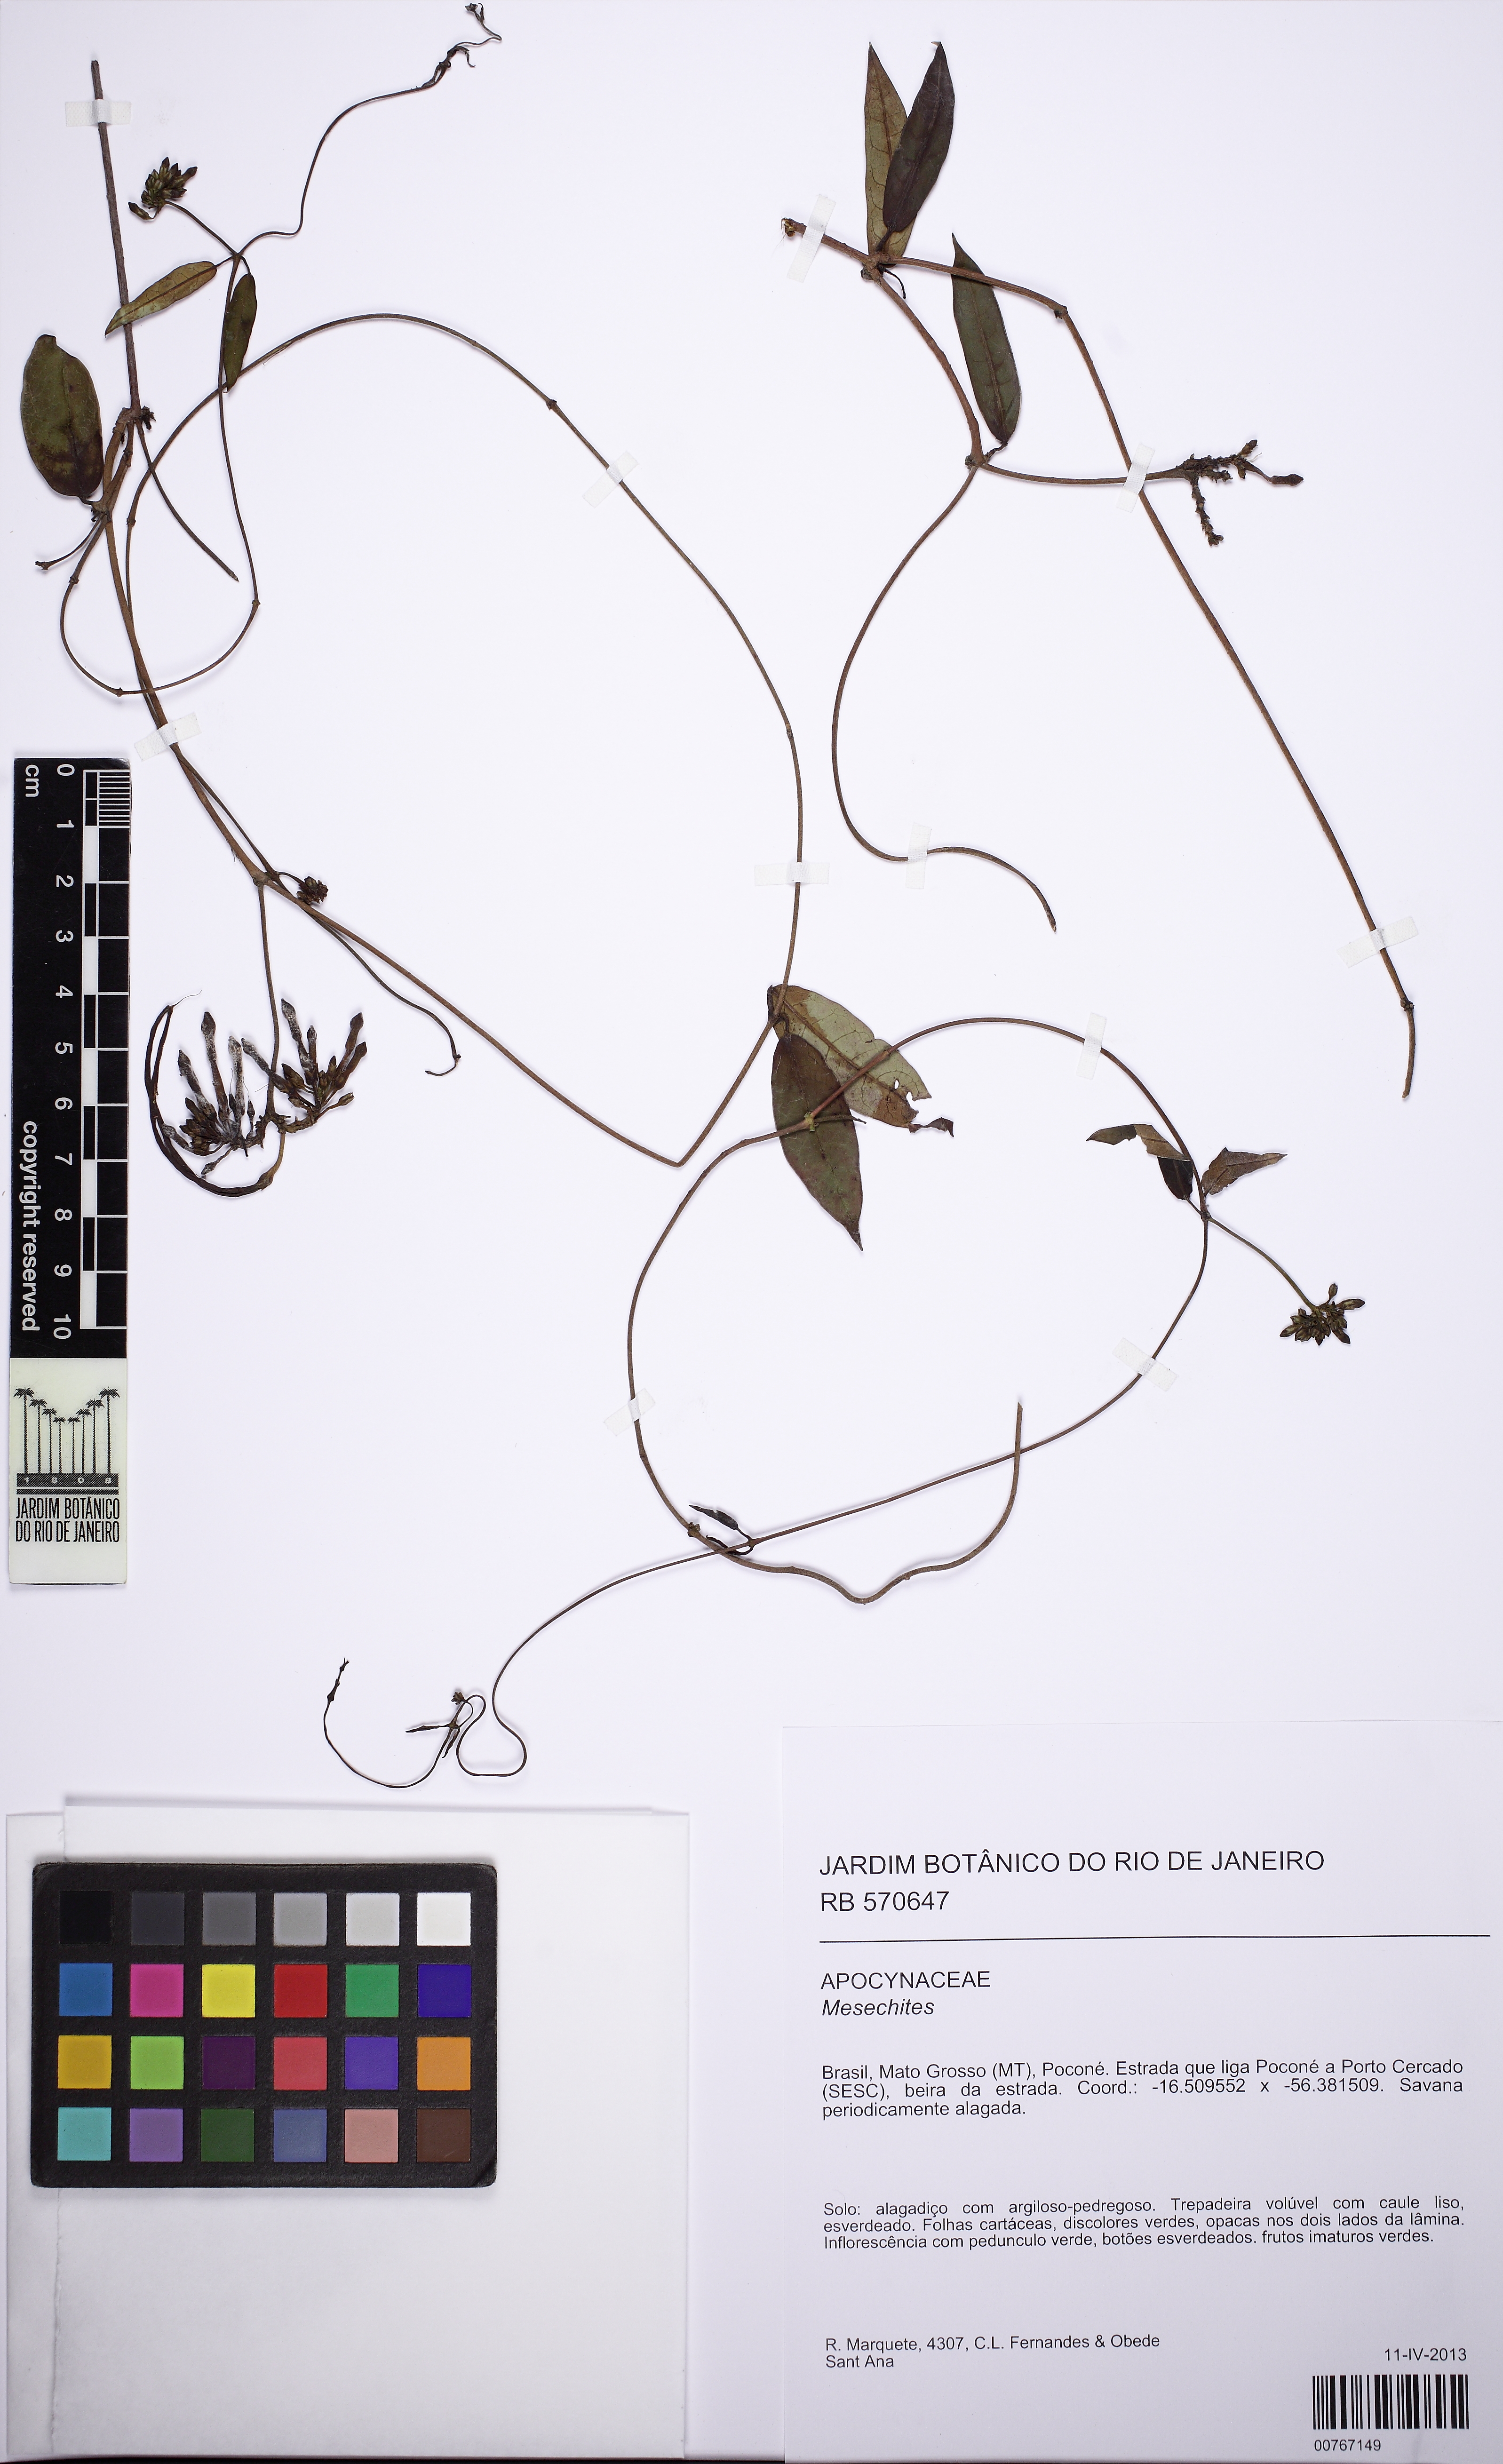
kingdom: Plantae
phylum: Tracheophyta
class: Magnoliopsida
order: Gentianales
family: Apocynaceae
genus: Mesechites
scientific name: Mesechites
